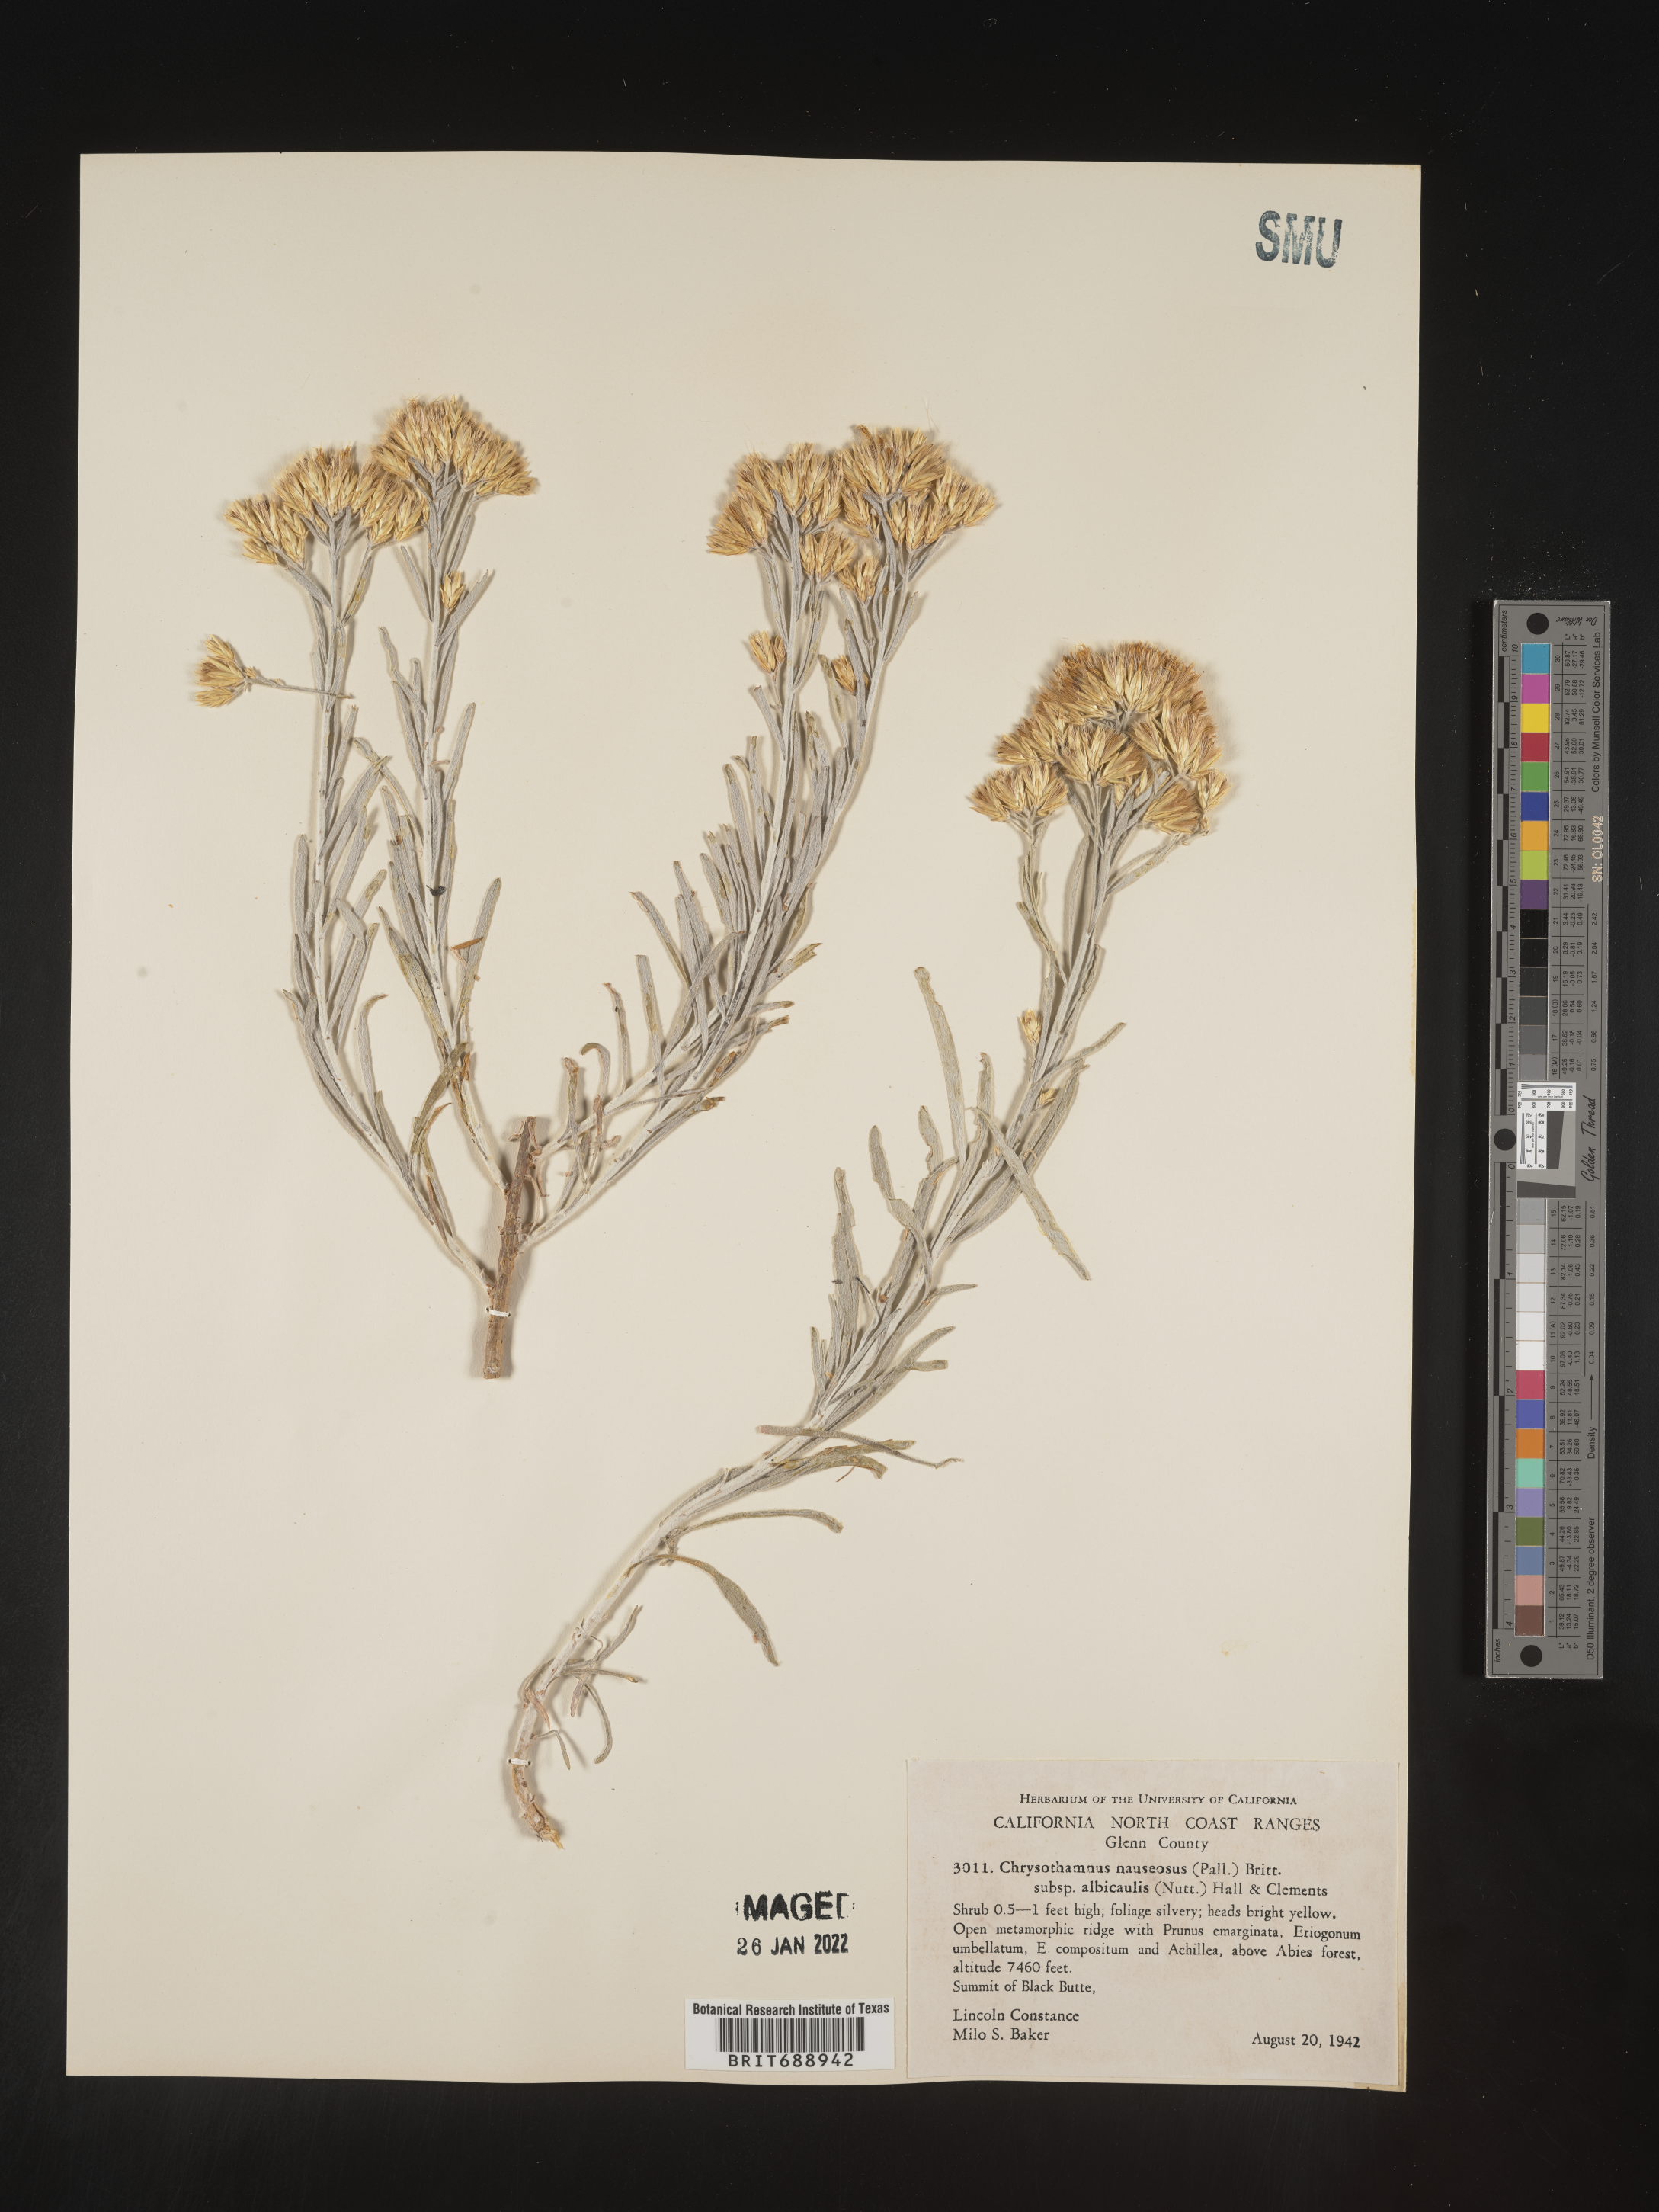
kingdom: Plantae
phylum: Tracheophyta
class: Magnoliopsida
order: Asterales
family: Asteraceae
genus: Ericameria
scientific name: Ericameria nauseosa
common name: Rubber rabbitbrush
